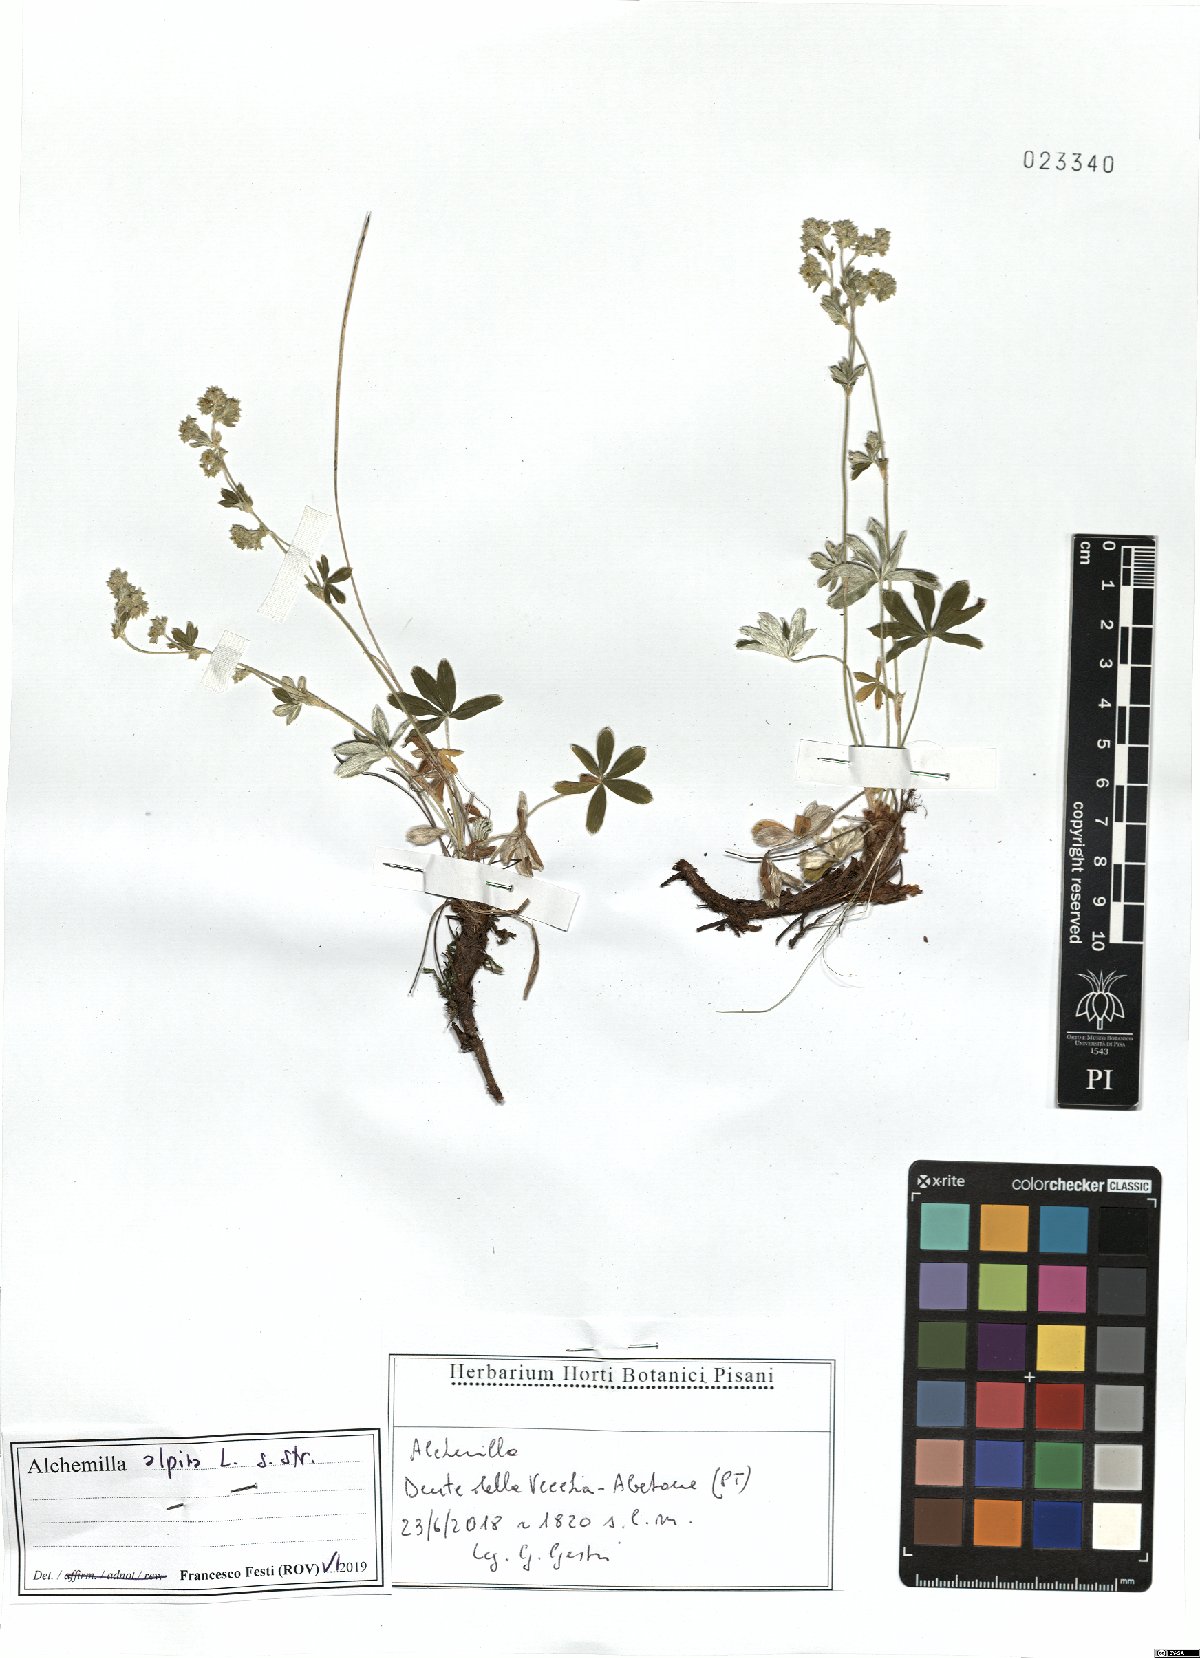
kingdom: Plantae
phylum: Tracheophyta
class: Magnoliopsida
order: Rosales
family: Rosaceae
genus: Alchemilla
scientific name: Alchemilla alpina
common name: Alpine lady's-mantle
